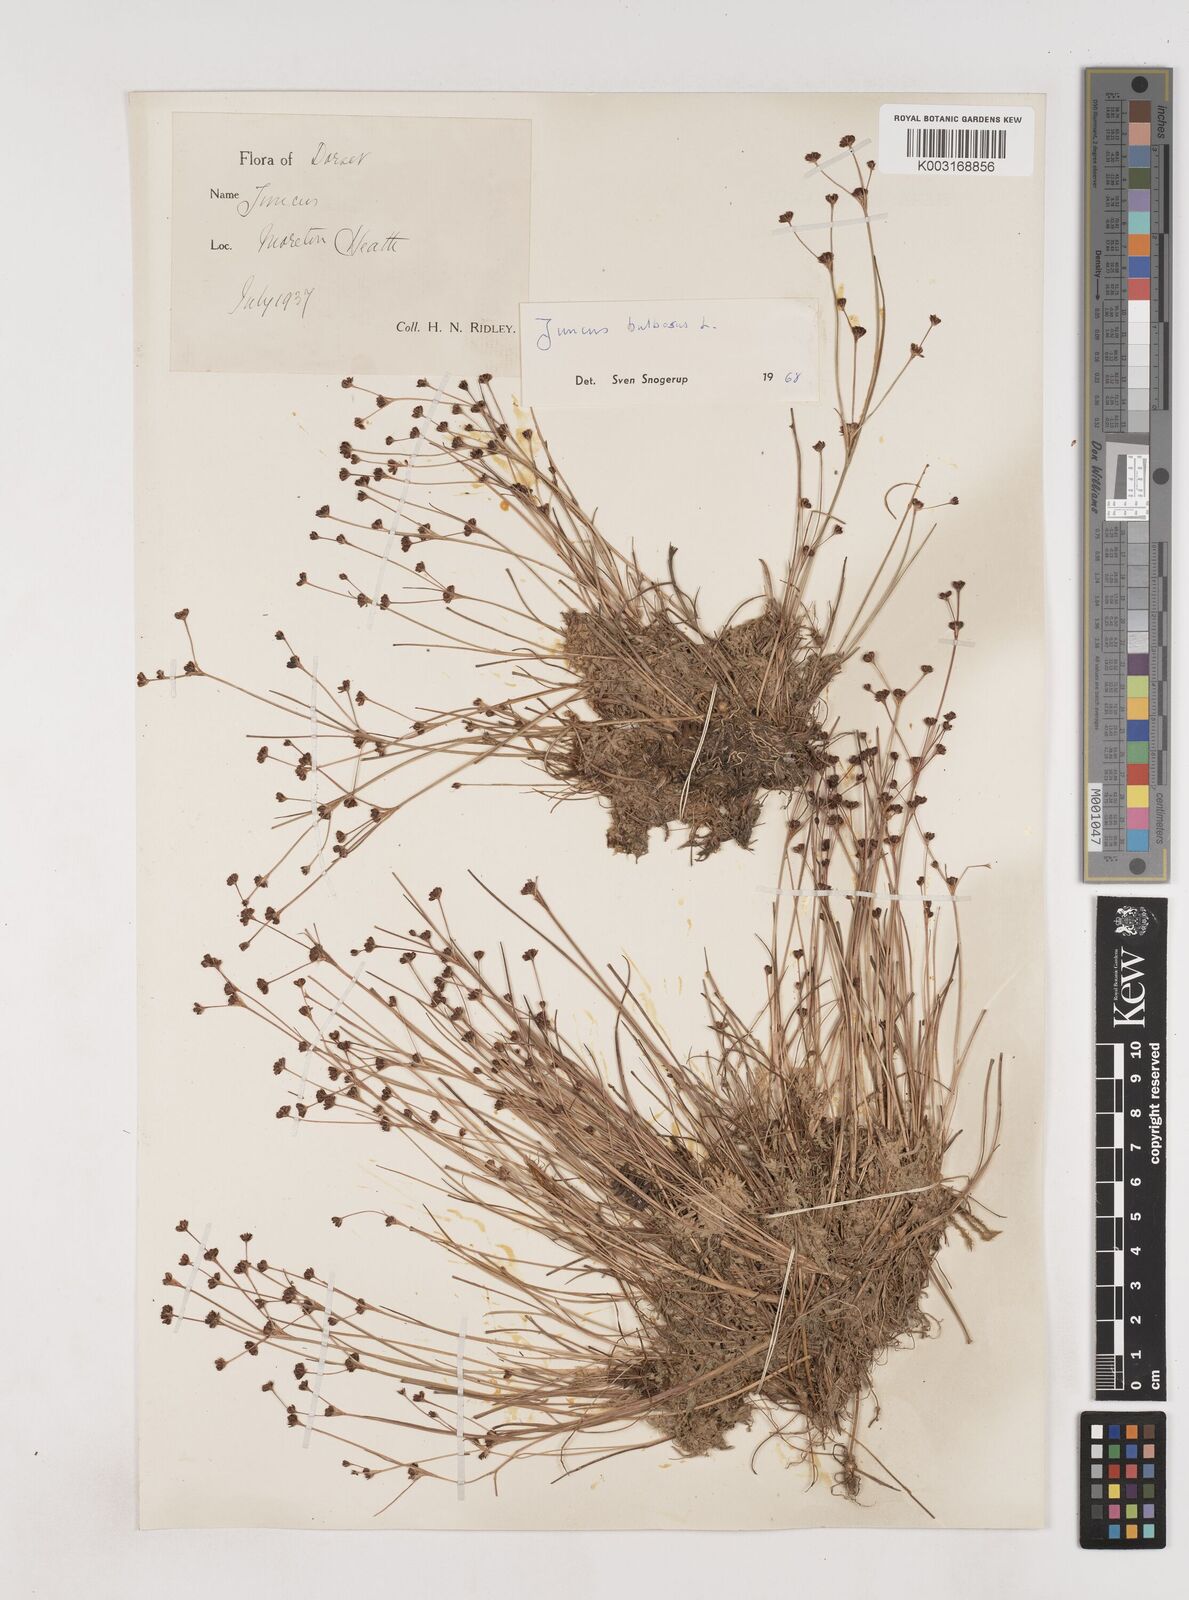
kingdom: Plantae
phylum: Tracheophyta
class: Liliopsida
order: Poales
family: Juncaceae
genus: Juncus
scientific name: Juncus bulbosus
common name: Bulbous rush
